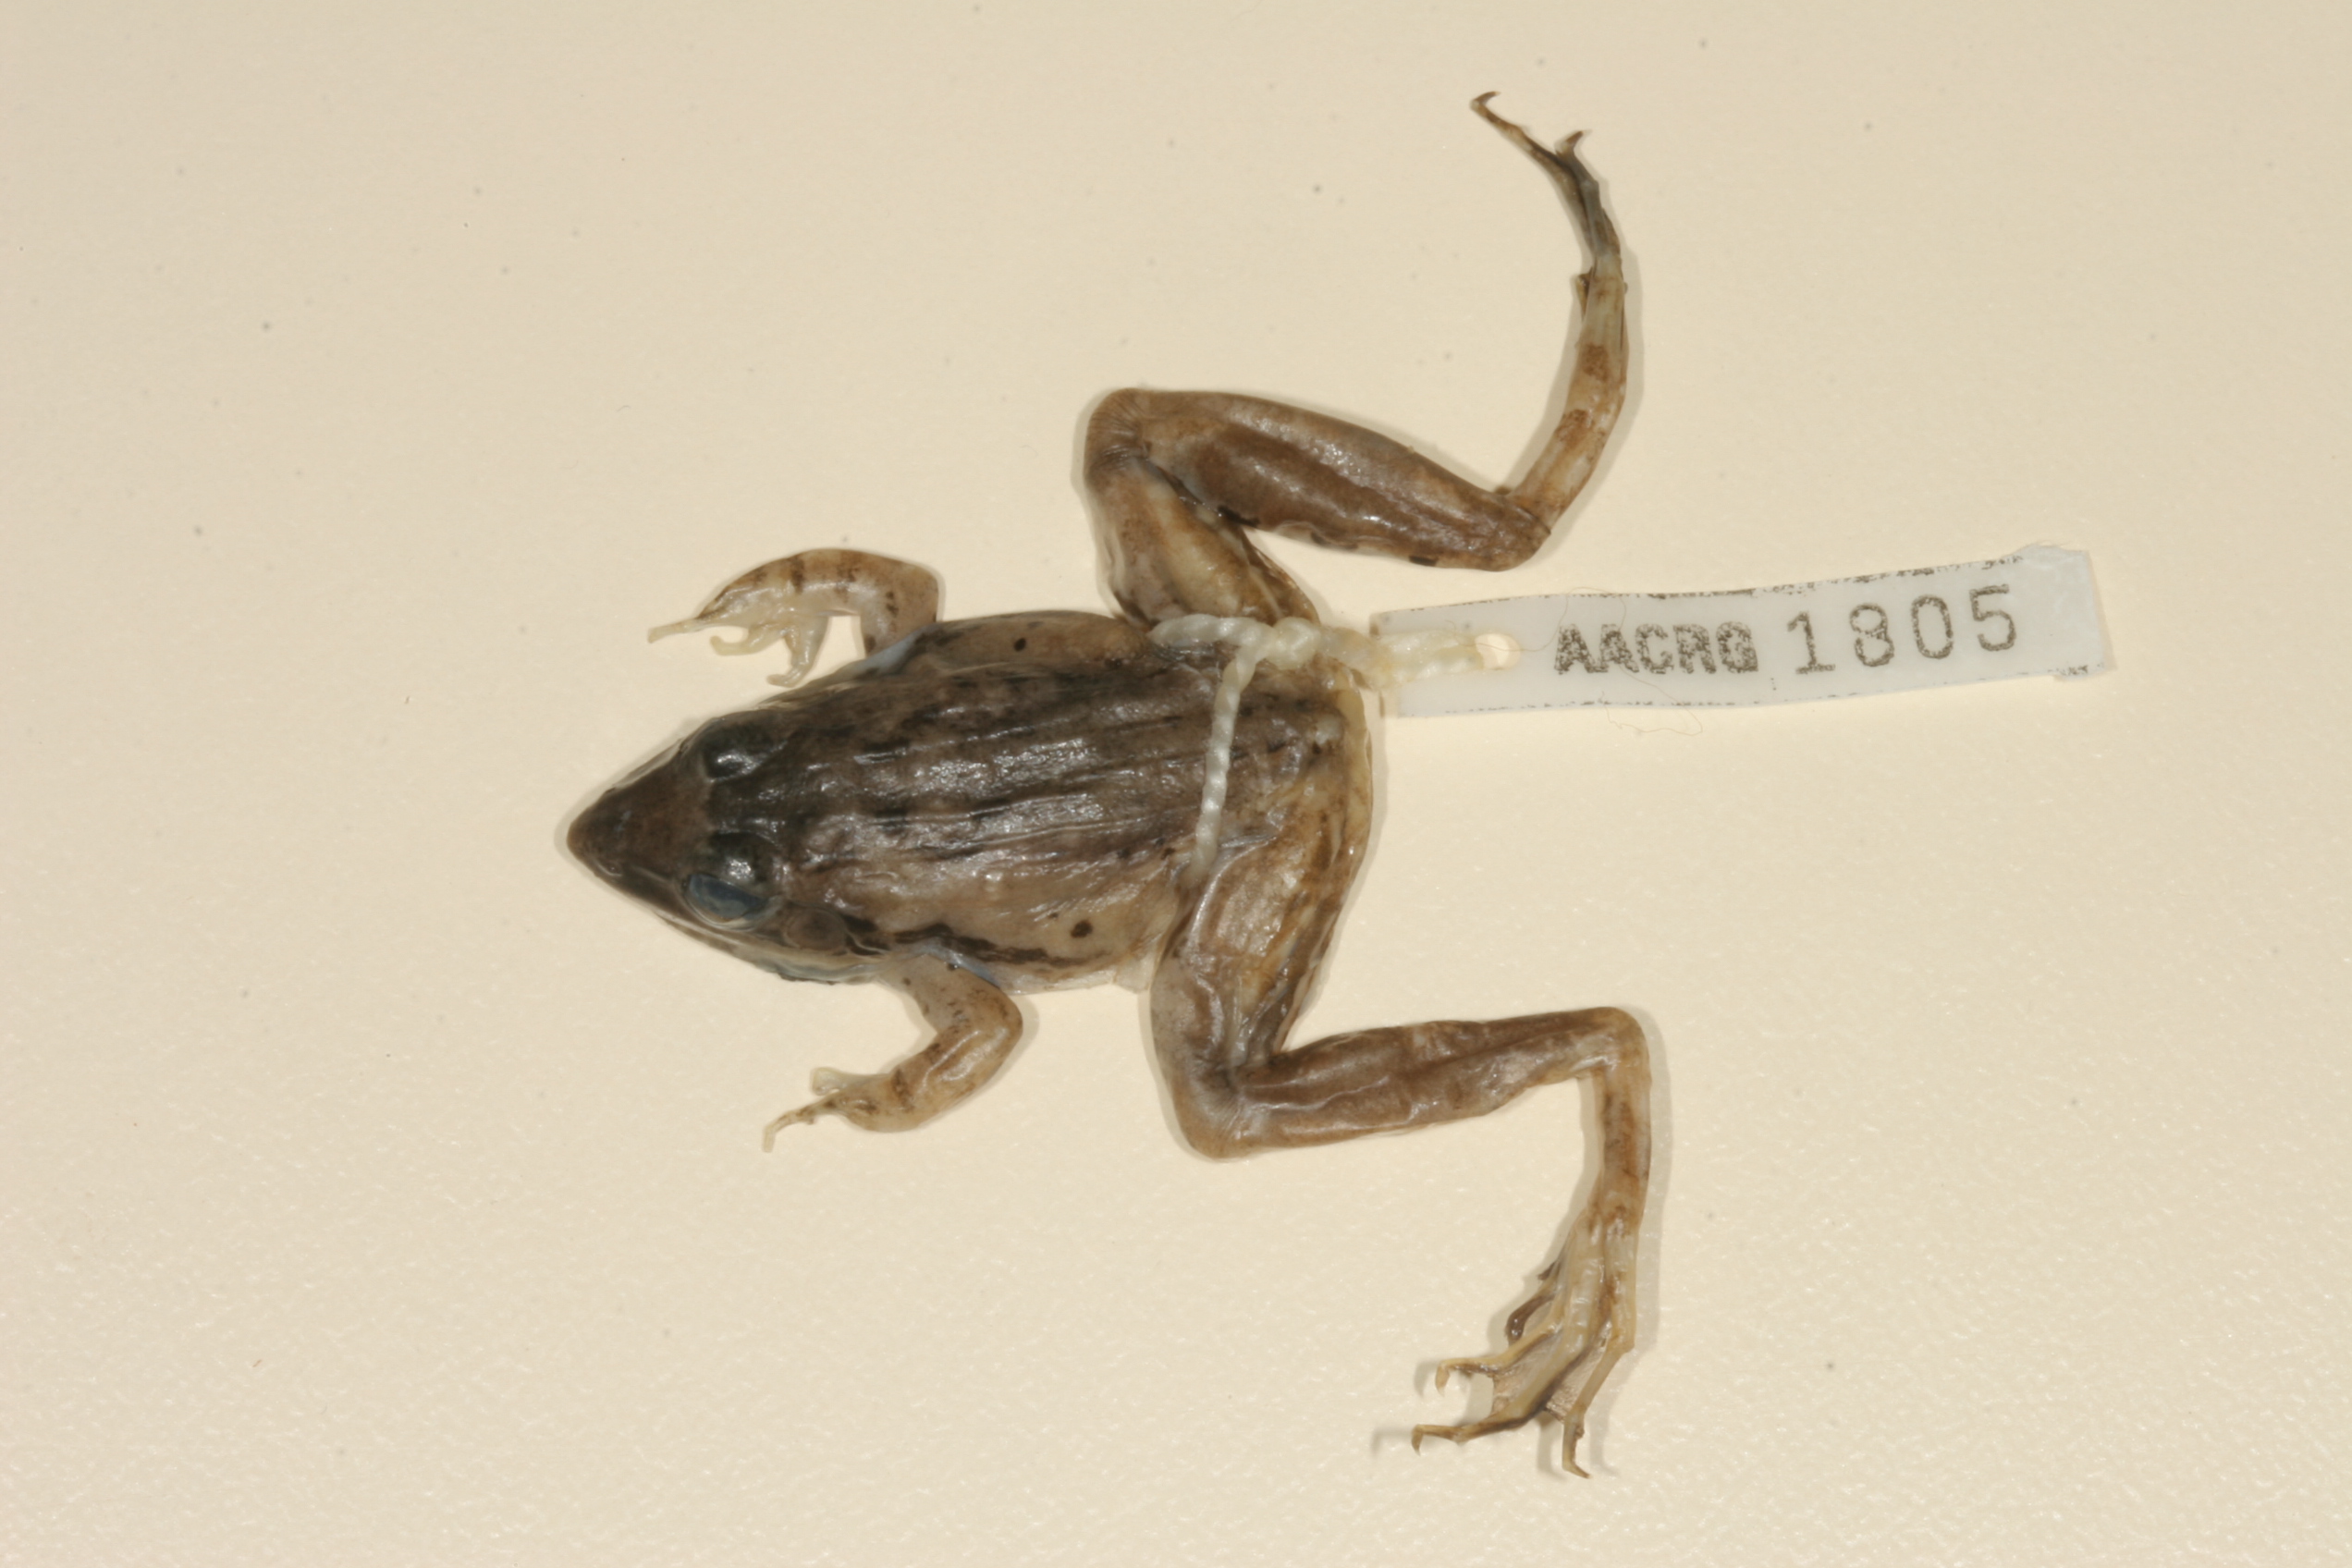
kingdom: Animalia
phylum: Chordata
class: Amphibia
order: Anura
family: Ptychadenidae
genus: Ptychadena
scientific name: Ptychadena anchietae
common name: Anchieta's ridged frog
